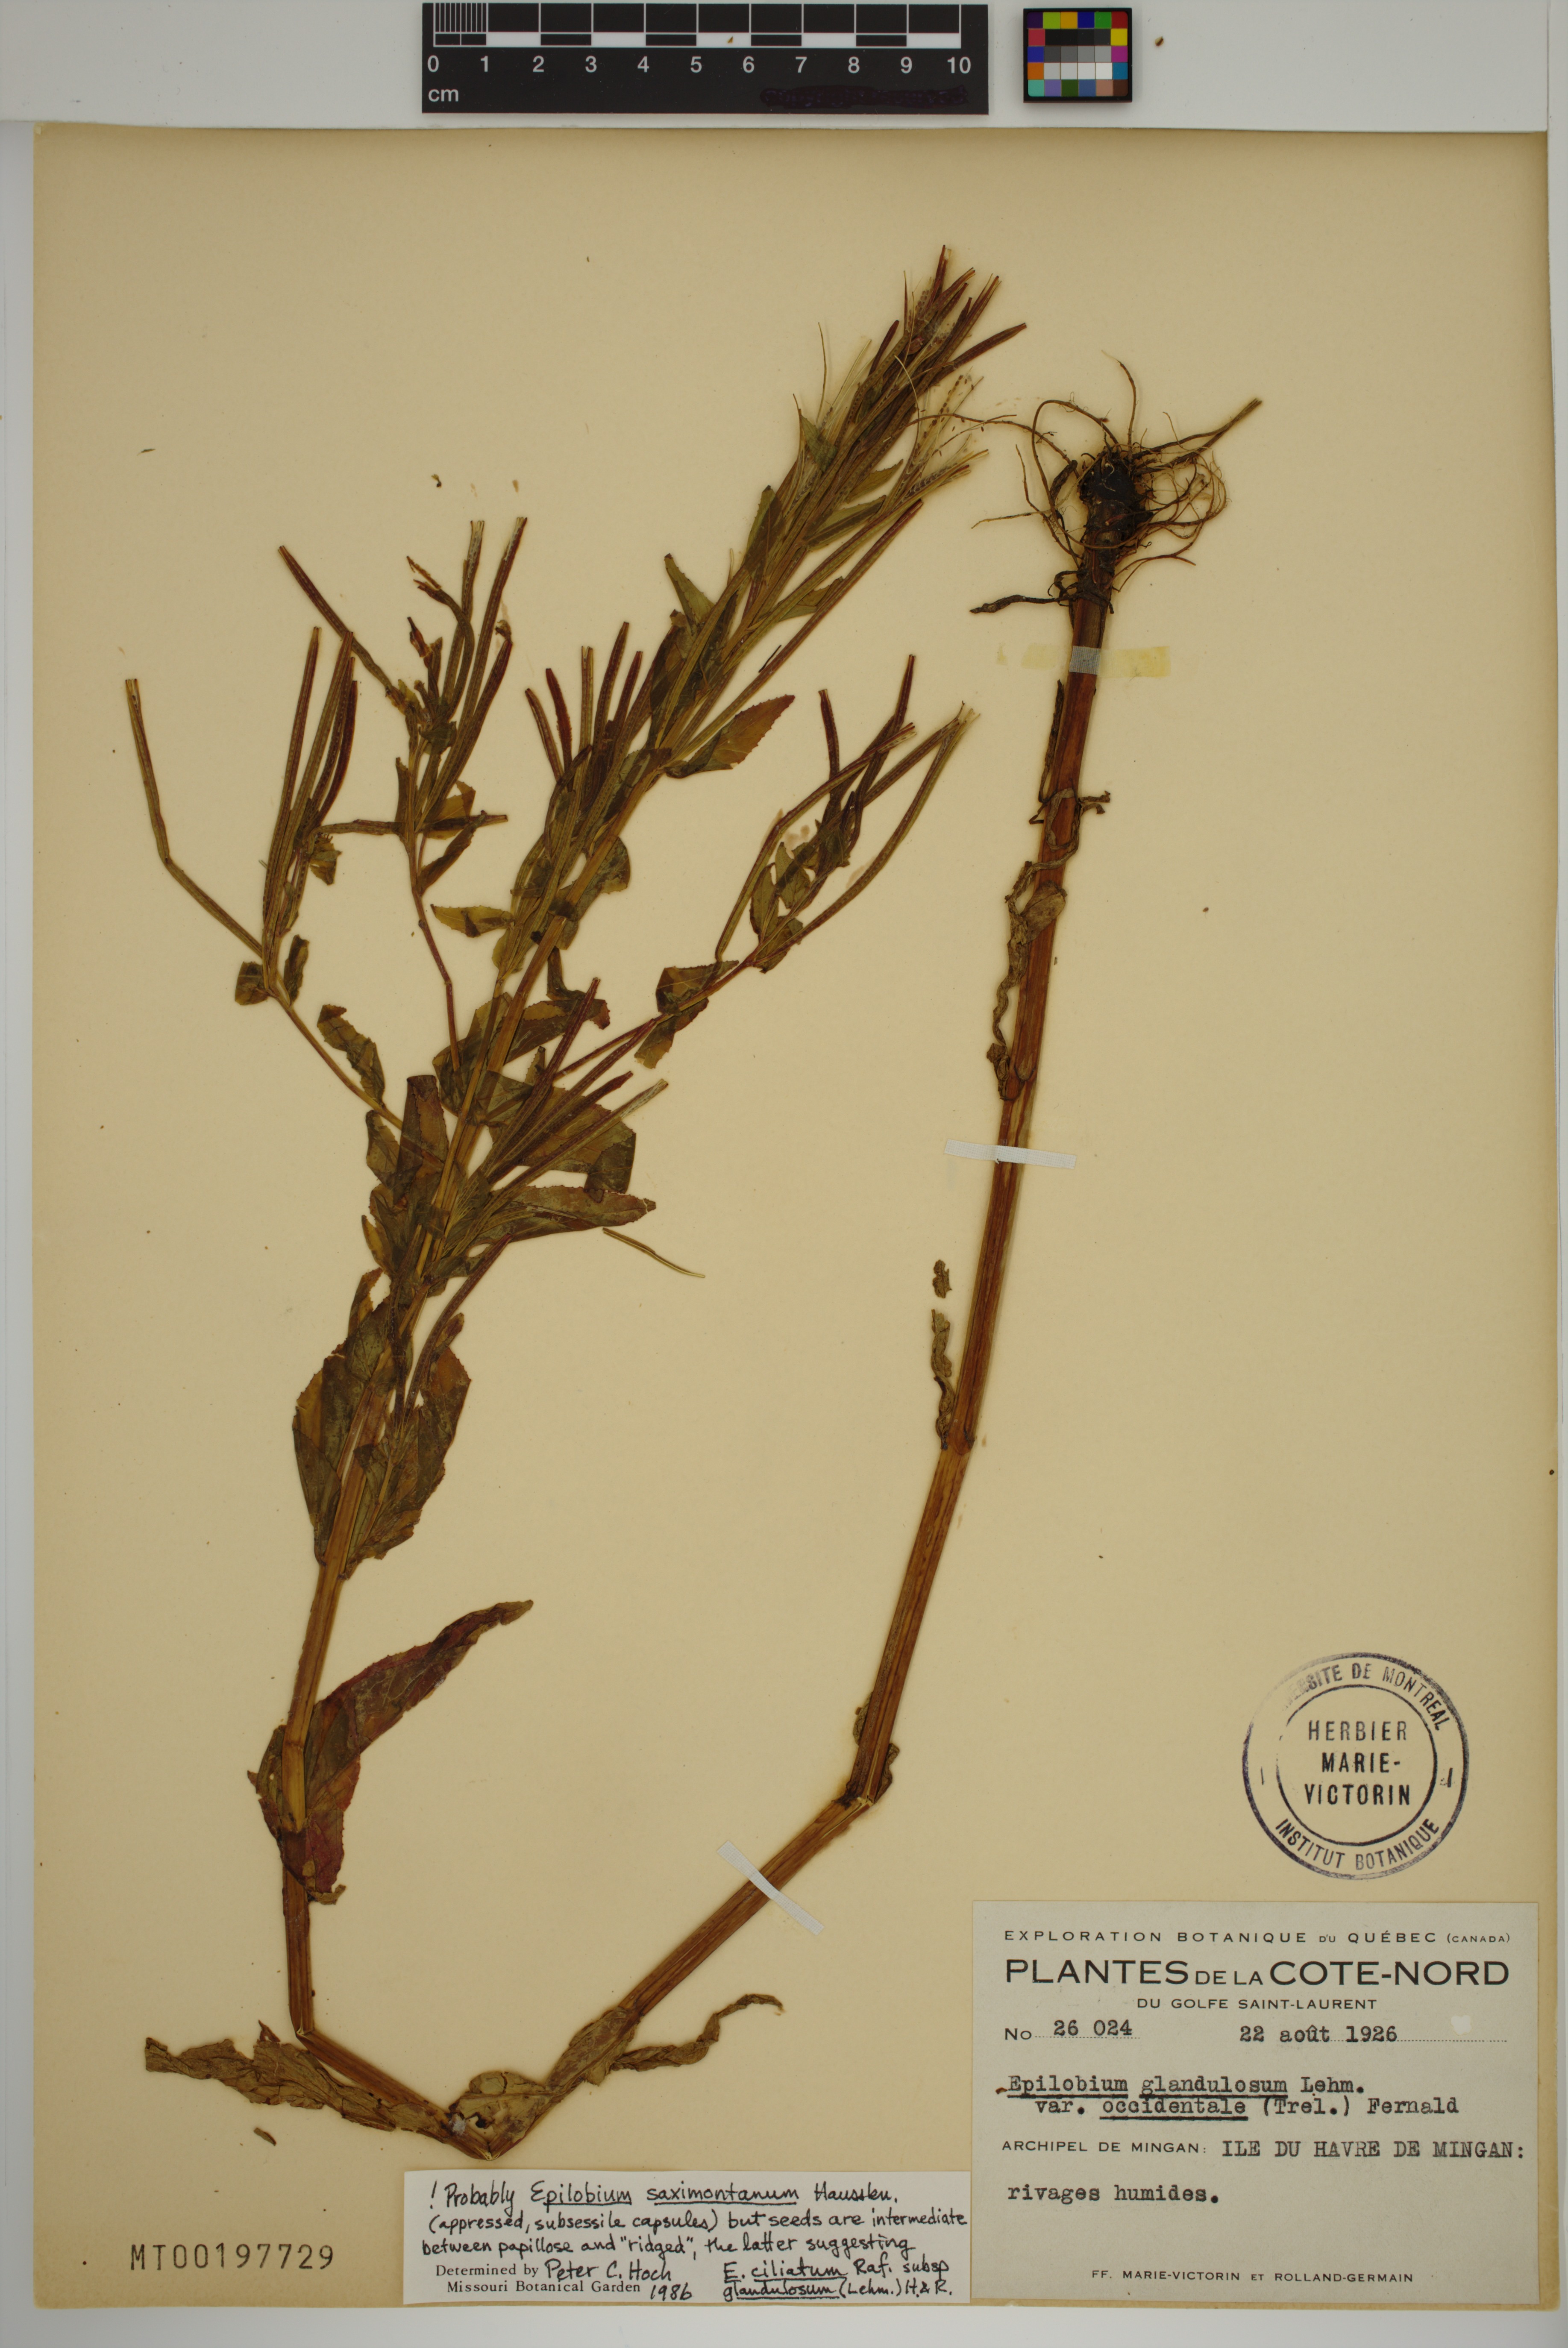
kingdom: Plantae
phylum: Tracheophyta
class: Magnoliopsida
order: Myrtales
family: Onagraceae
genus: Epilobium
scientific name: Epilobium saximontanum
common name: Rocky mountain willowherb
